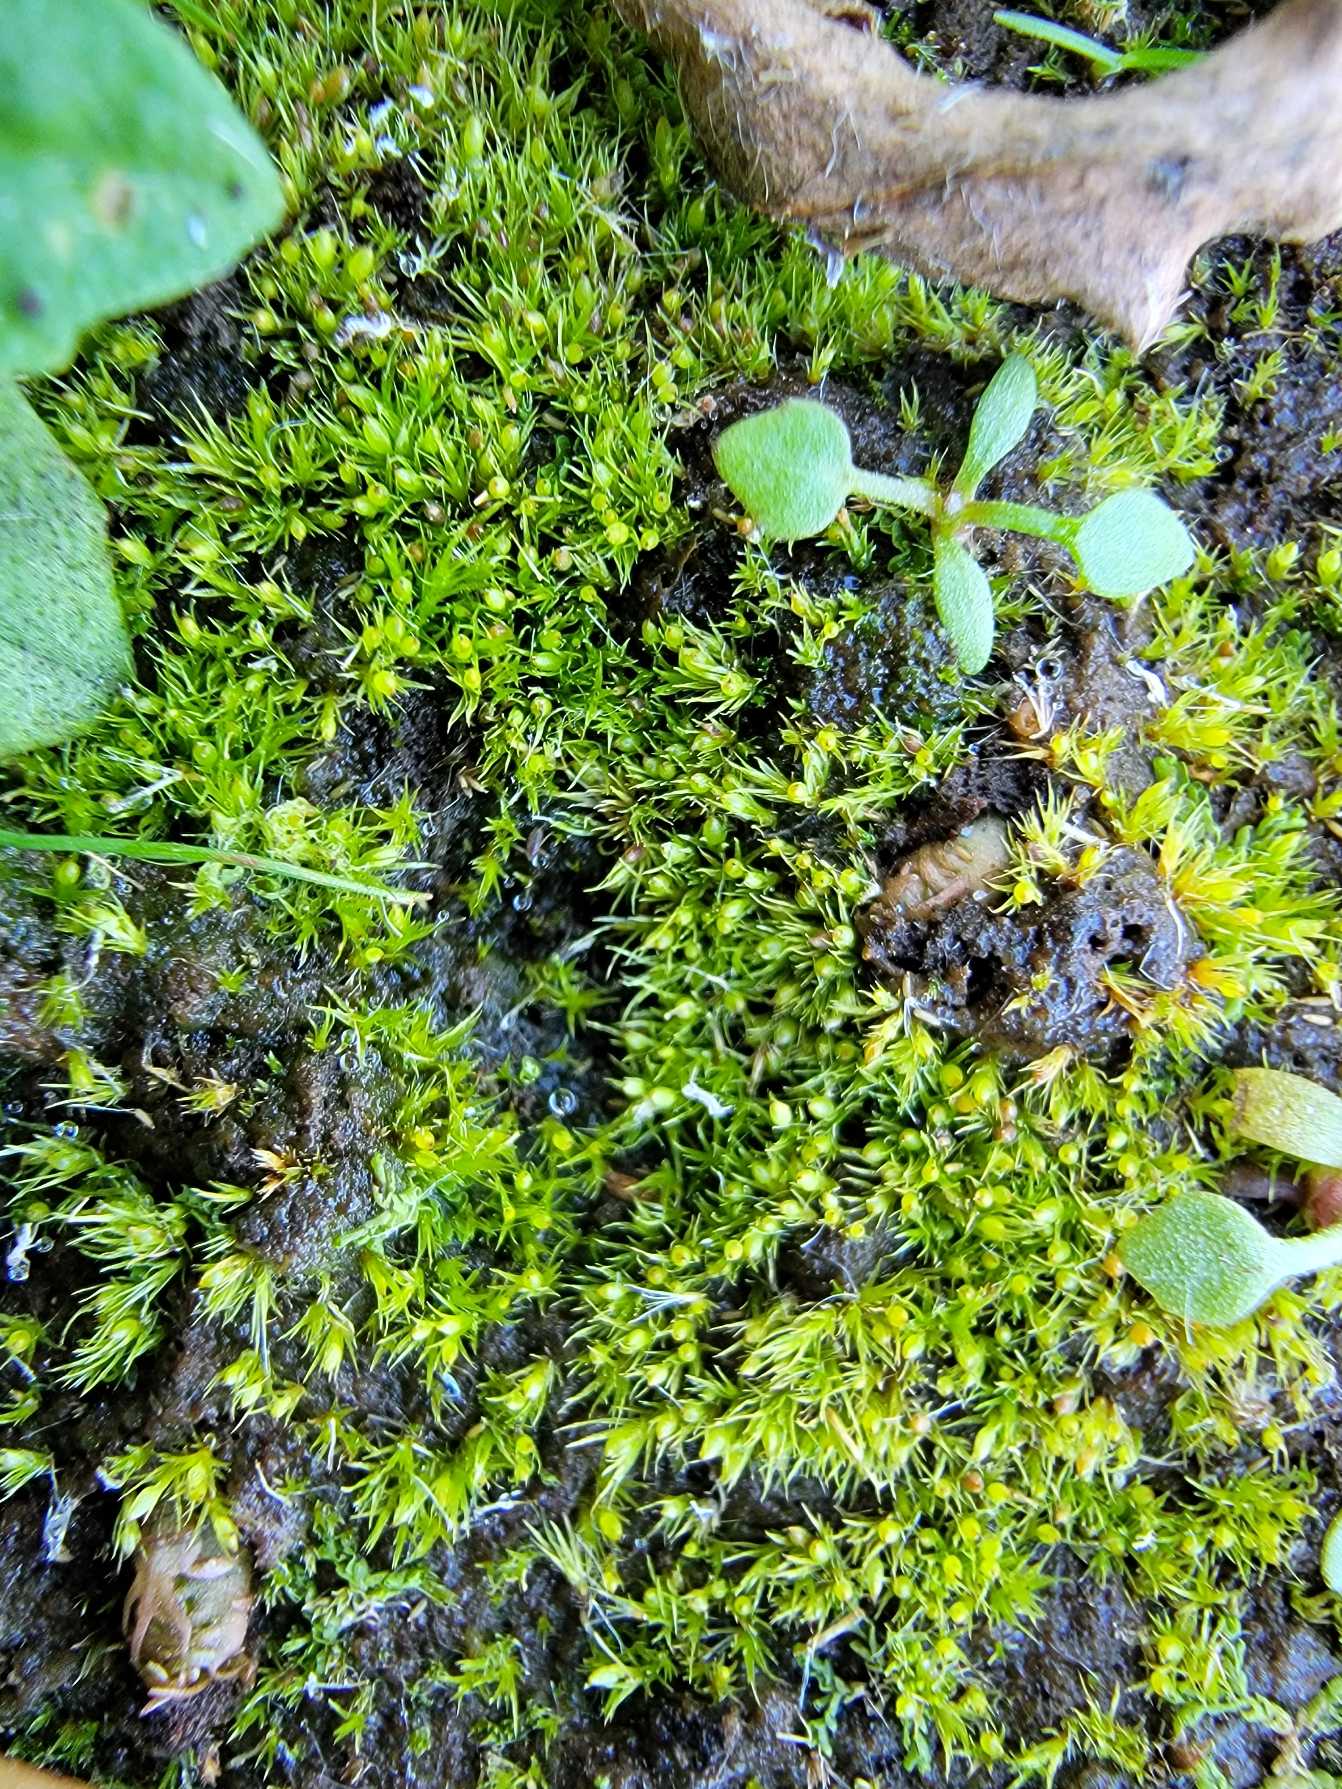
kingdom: Plantae
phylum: Bryophyta
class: Bryopsida
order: Dicranales
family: Ditrichaceae
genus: Pseudephemerum
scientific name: Pseudephemerum nitidum
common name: Jord-nøgenmos
